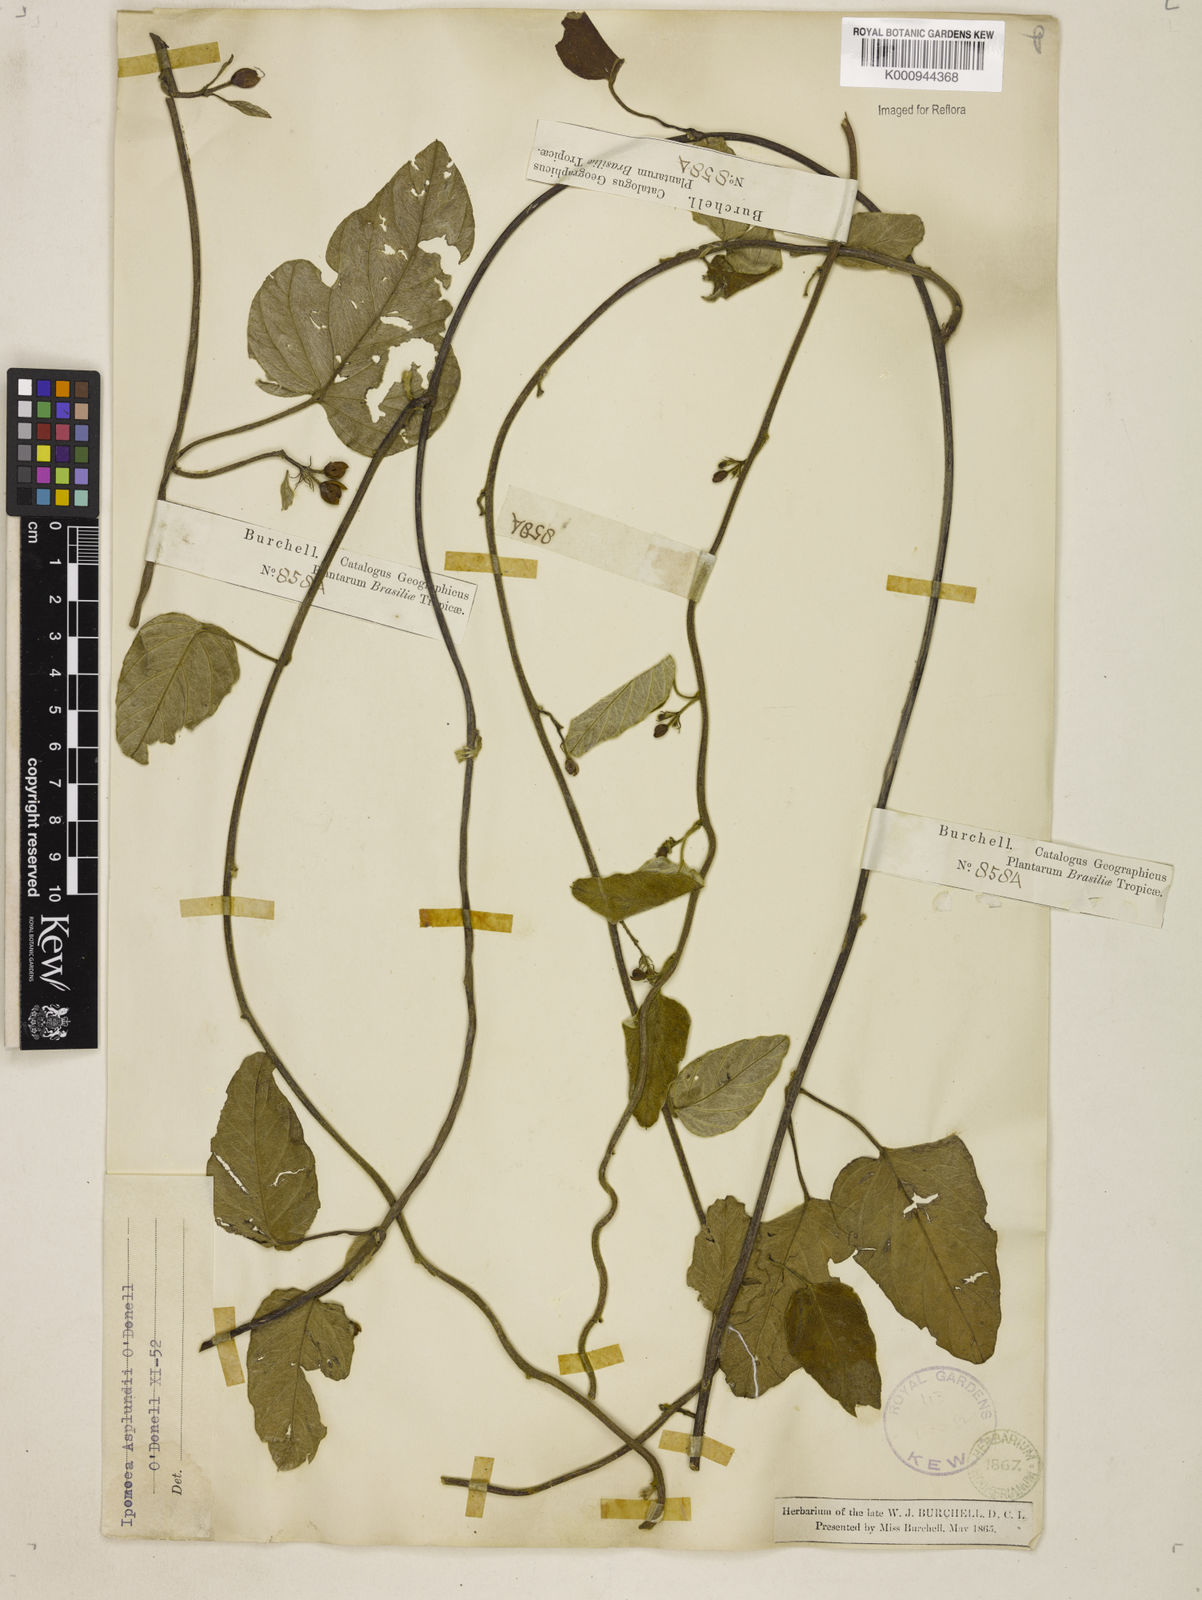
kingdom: Plantae
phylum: Tracheophyta
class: Magnoliopsida
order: Solanales
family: Convolvulaceae
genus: Ipomoea
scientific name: Ipomoea asplundii
